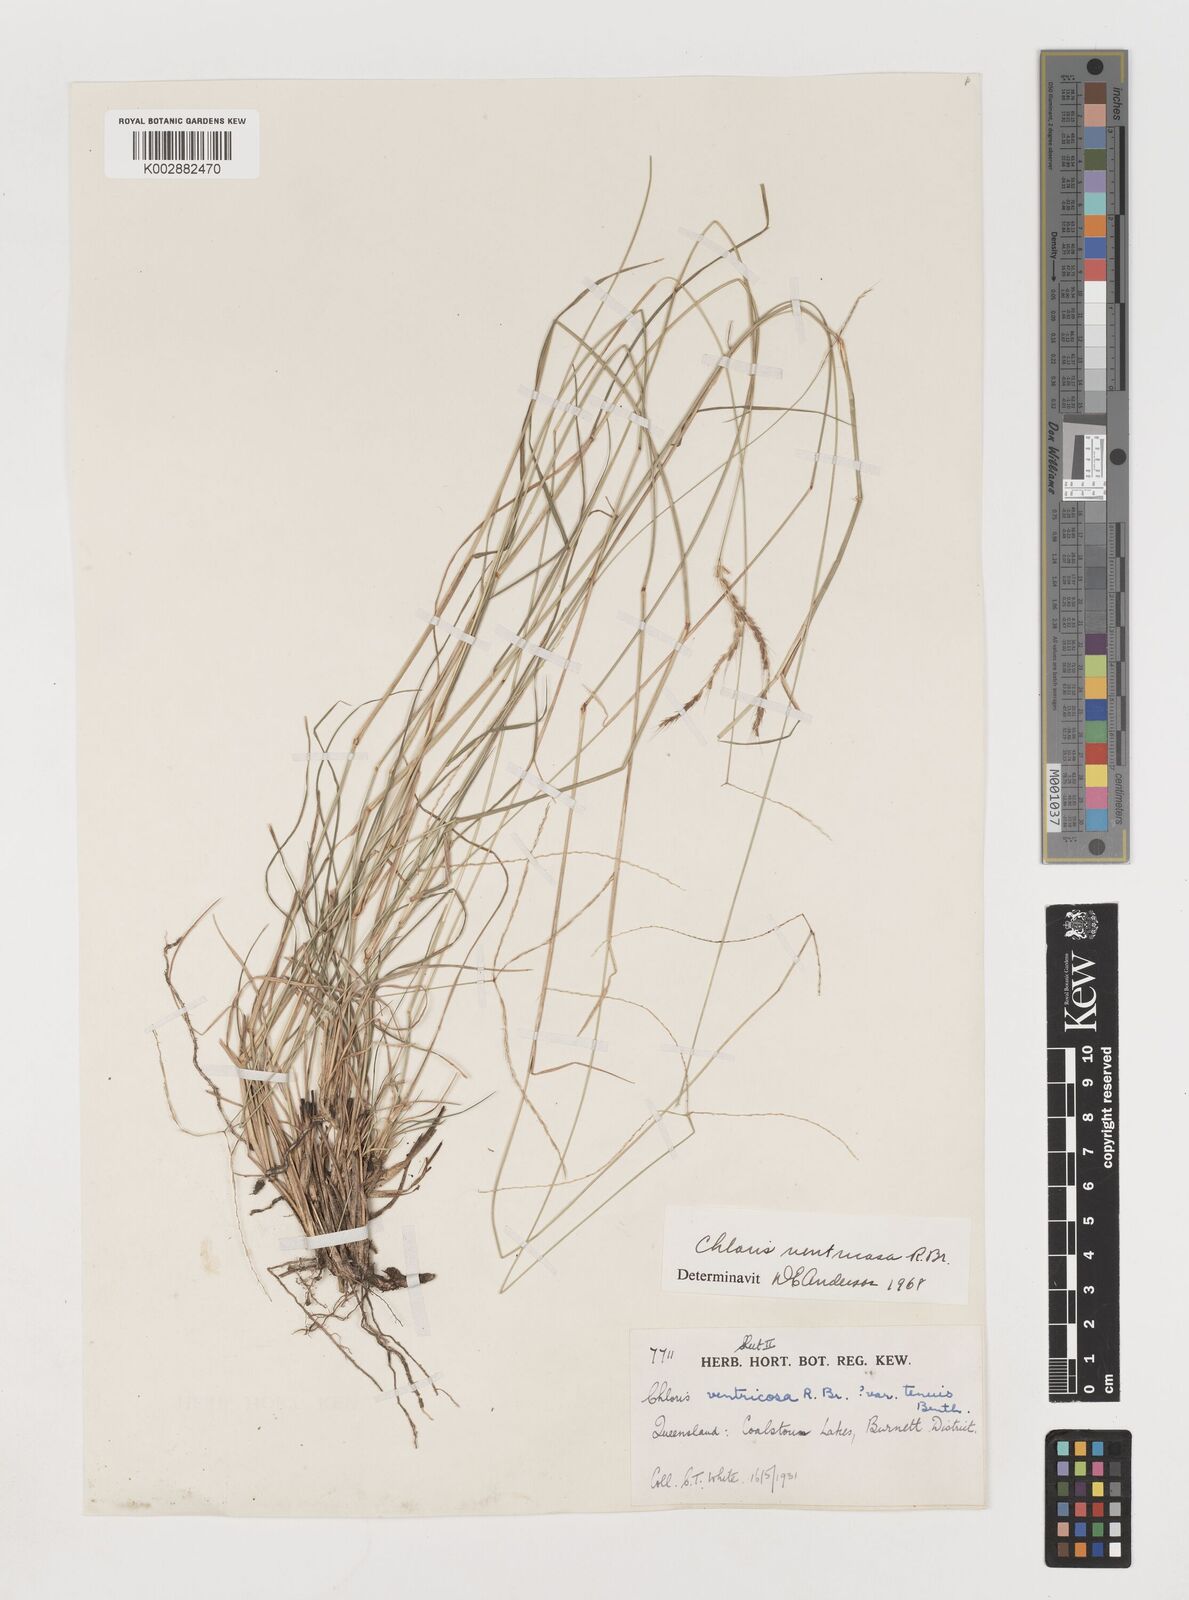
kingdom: Plantae
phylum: Tracheophyta
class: Liliopsida
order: Poales
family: Poaceae
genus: Chloris
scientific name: Chloris ventricosa
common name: Australian windmill grass
